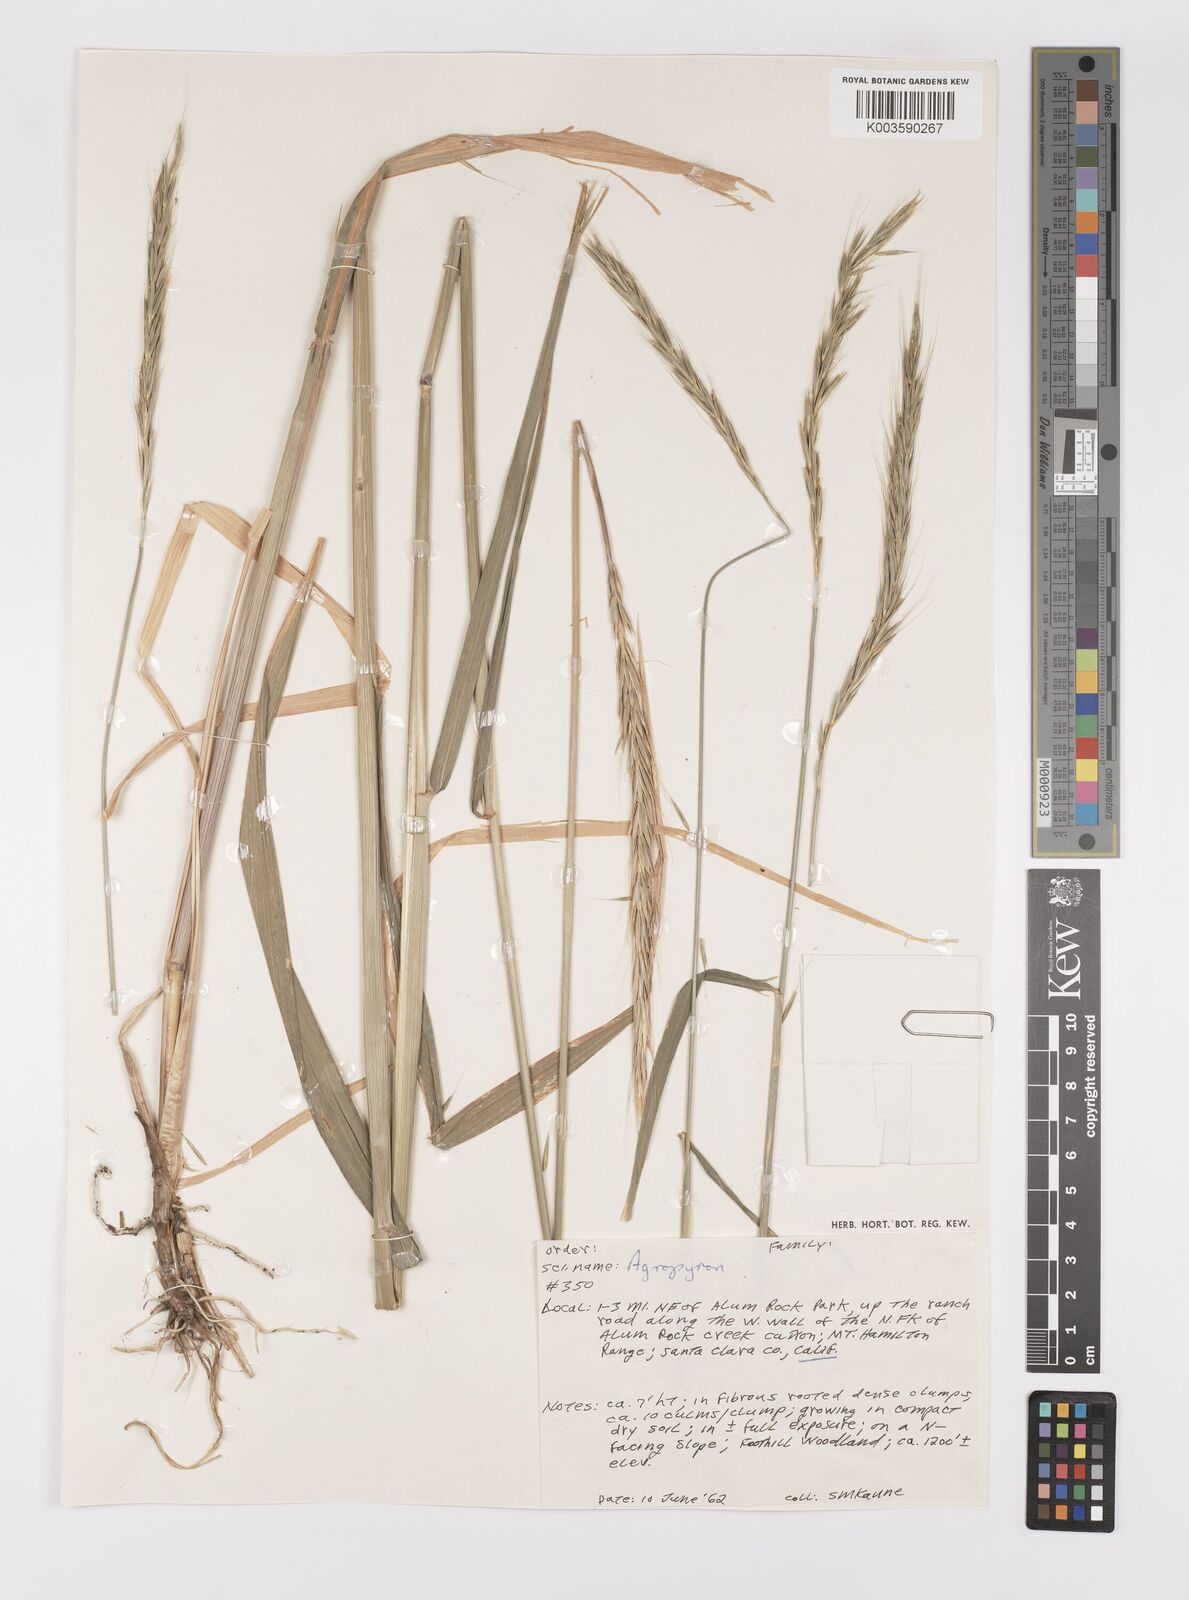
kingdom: Plantae
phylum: Tracheophyta
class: Liliopsida
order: Poales
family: Poaceae
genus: Elymus
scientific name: Elymus
